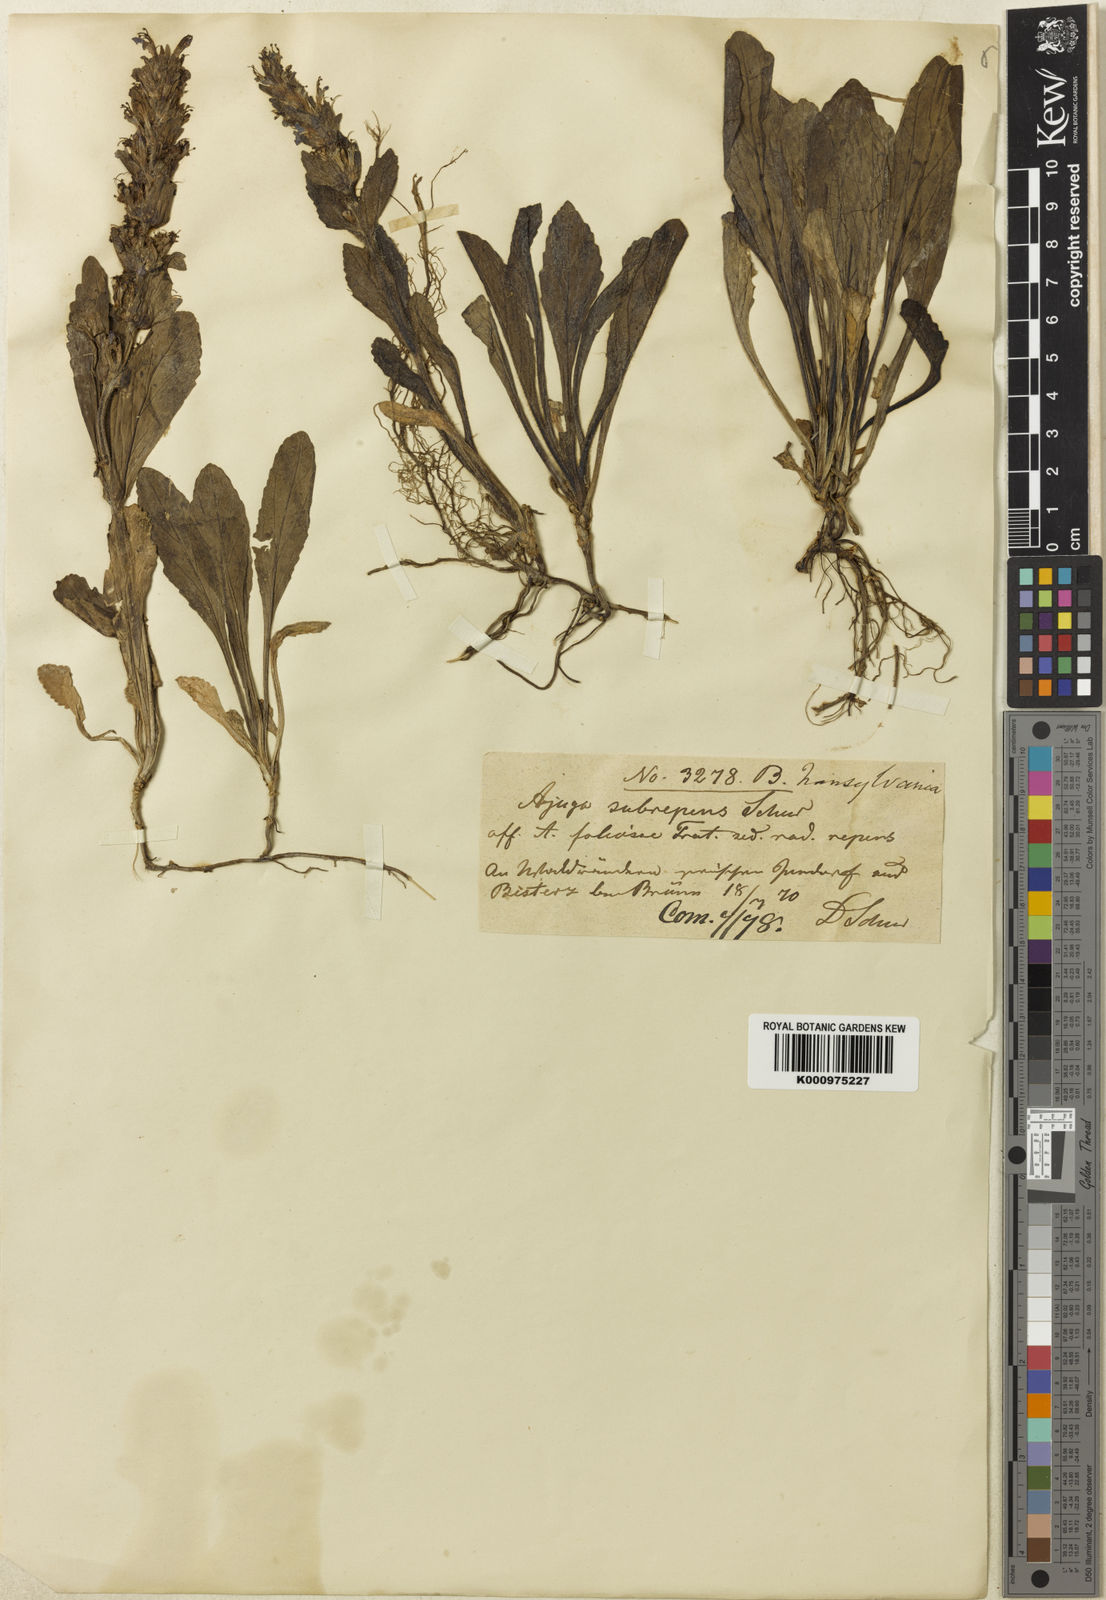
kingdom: Plantae
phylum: Tracheophyta
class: Magnoliopsida
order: Lamiales
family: Lamiaceae
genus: Ajuga
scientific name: Ajuga reptans
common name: Bugle
